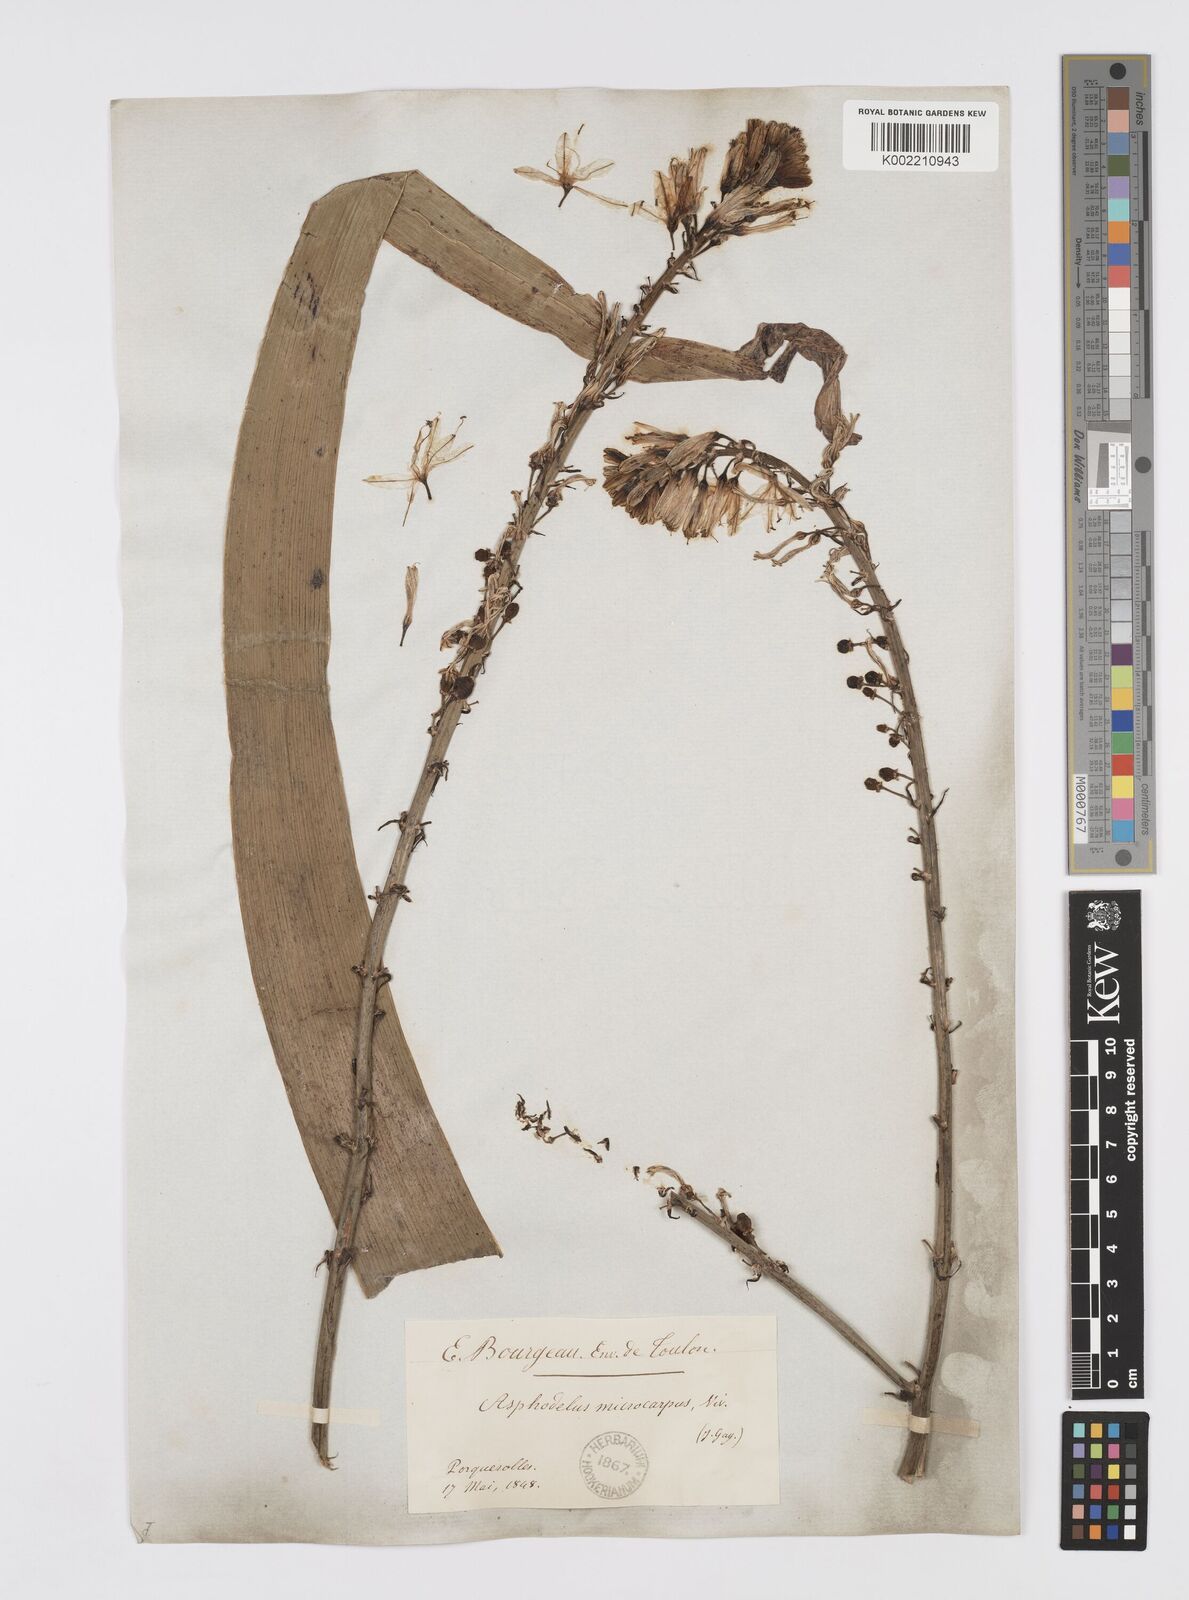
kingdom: Plantae
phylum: Tracheophyta
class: Liliopsida
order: Asparagales
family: Asphodelaceae
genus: Asphodelus
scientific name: Asphodelus ramosus
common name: Silverrod
